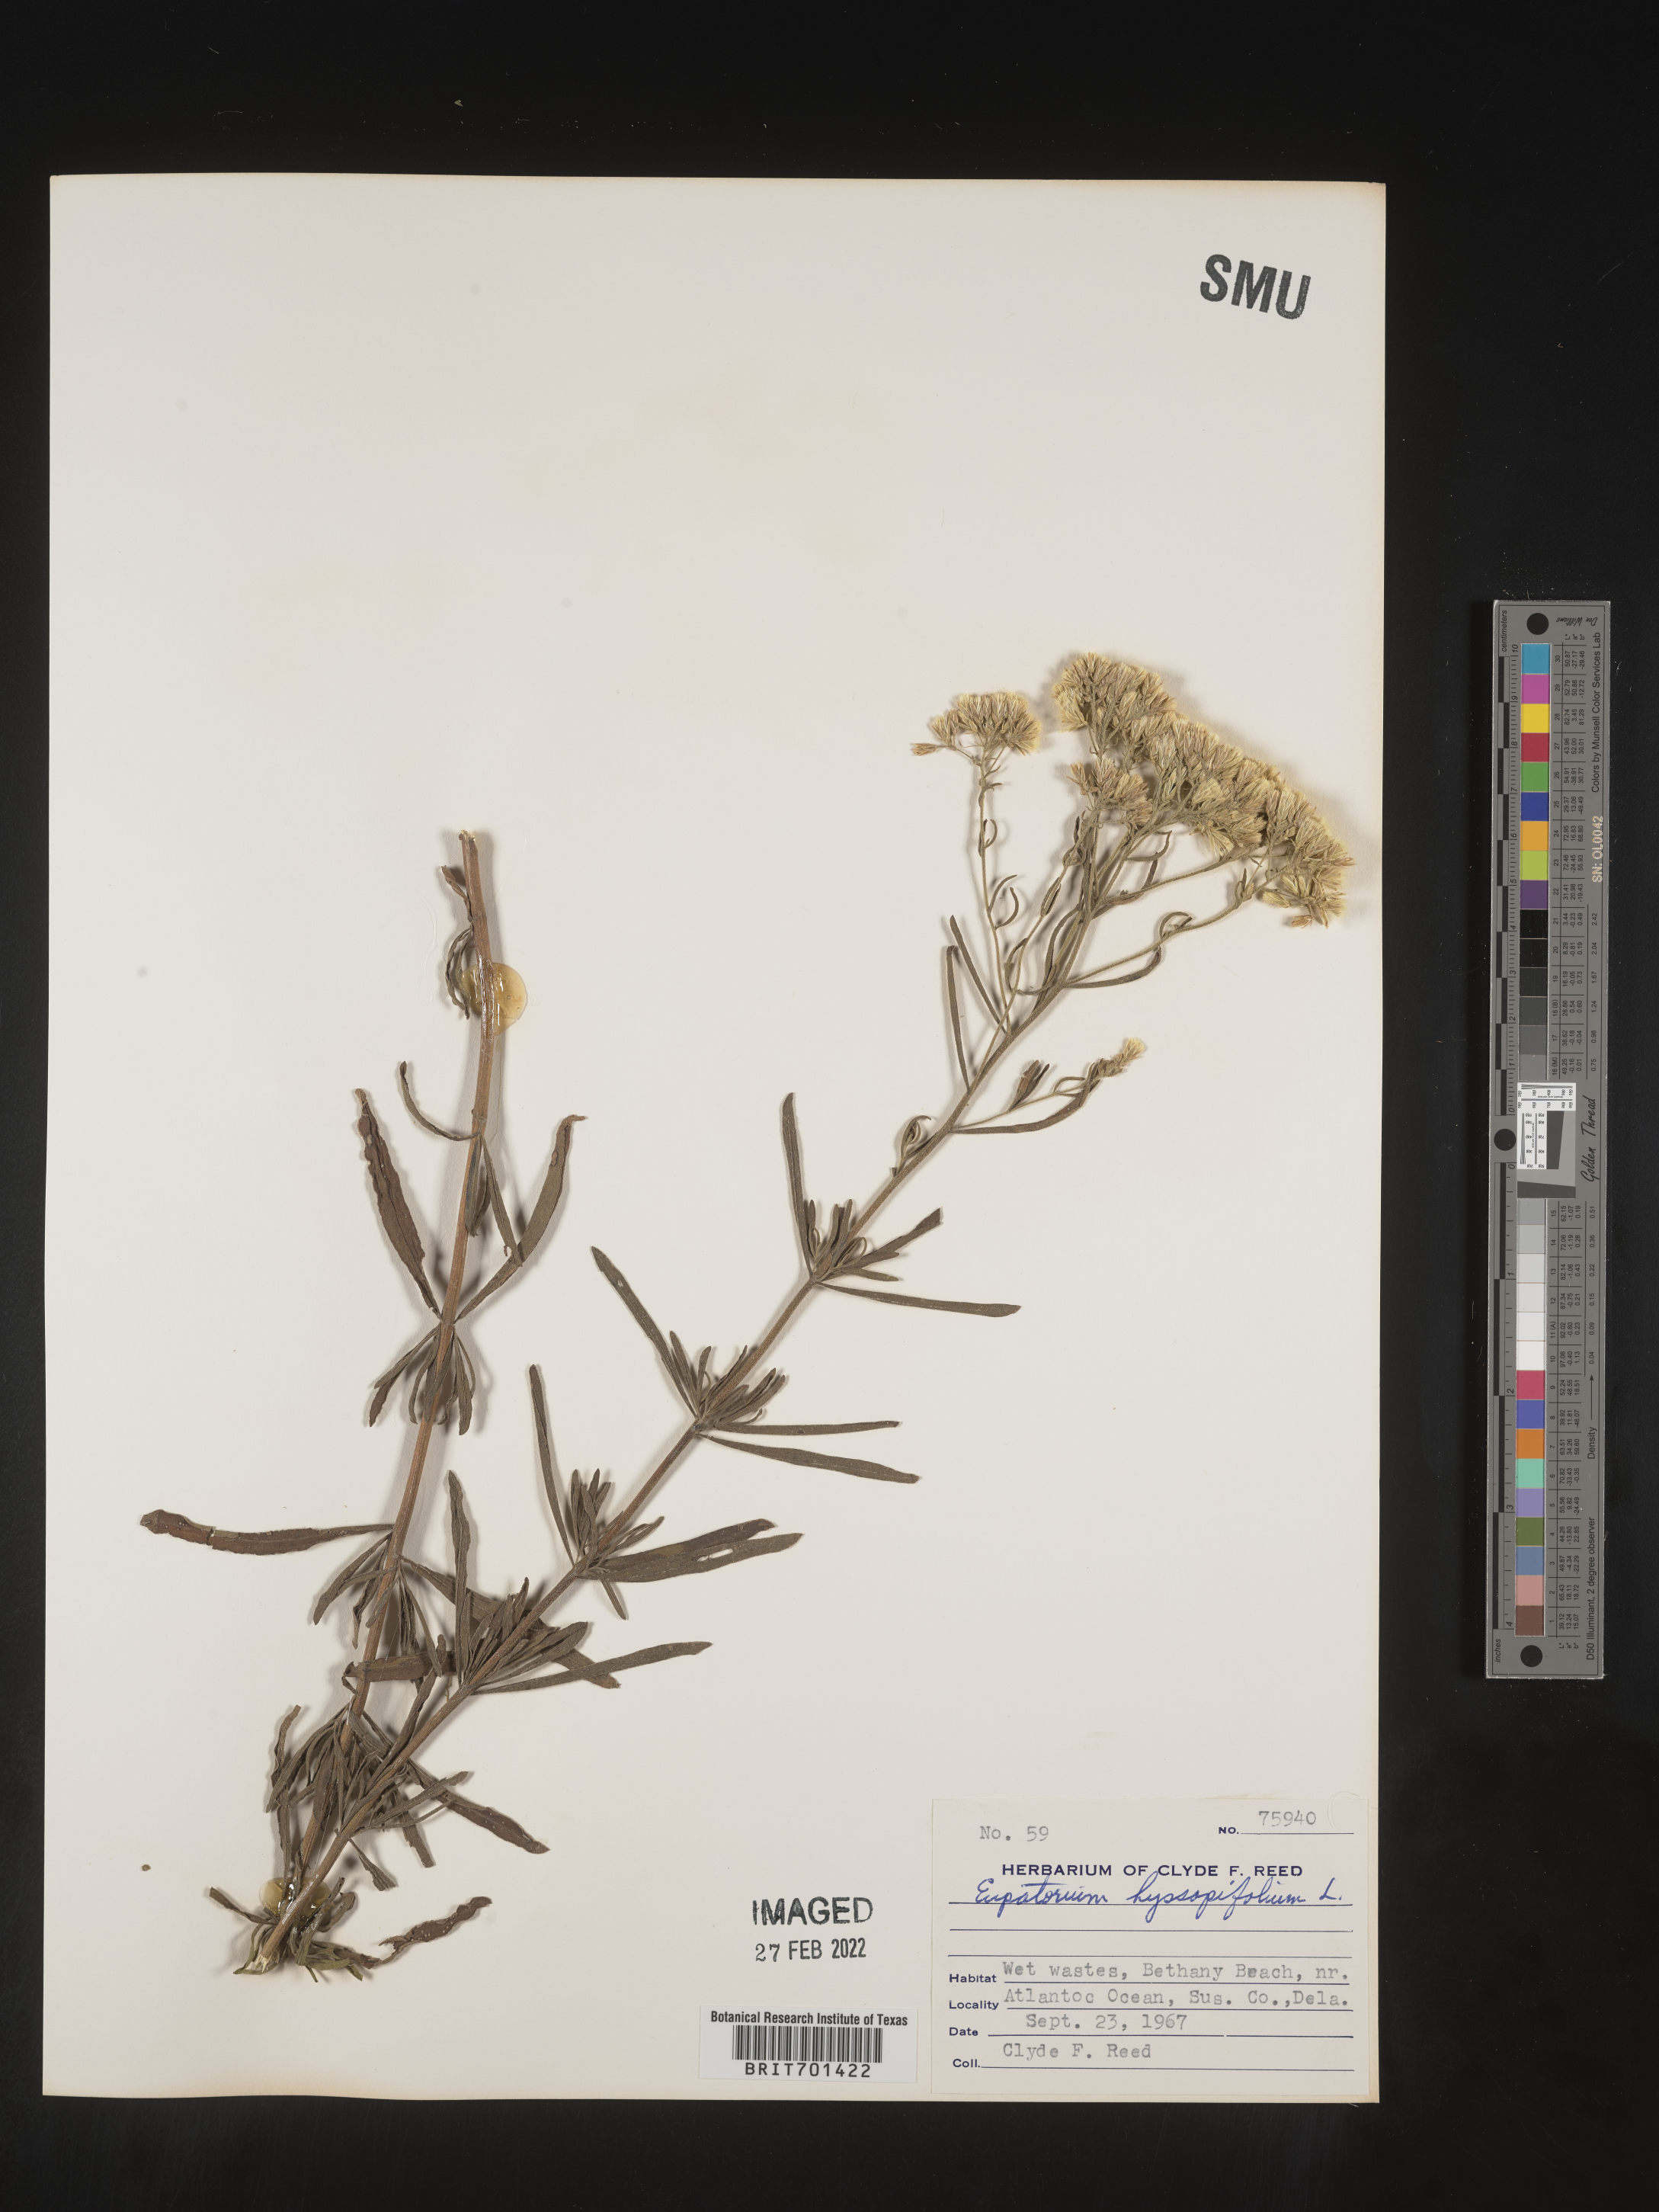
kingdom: Plantae
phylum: Tracheophyta
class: Magnoliopsida
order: Asterales
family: Asteraceae
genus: Eupatorium
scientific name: Eupatorium hyssopifolium
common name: Hyssop-leaf thoroughwort
